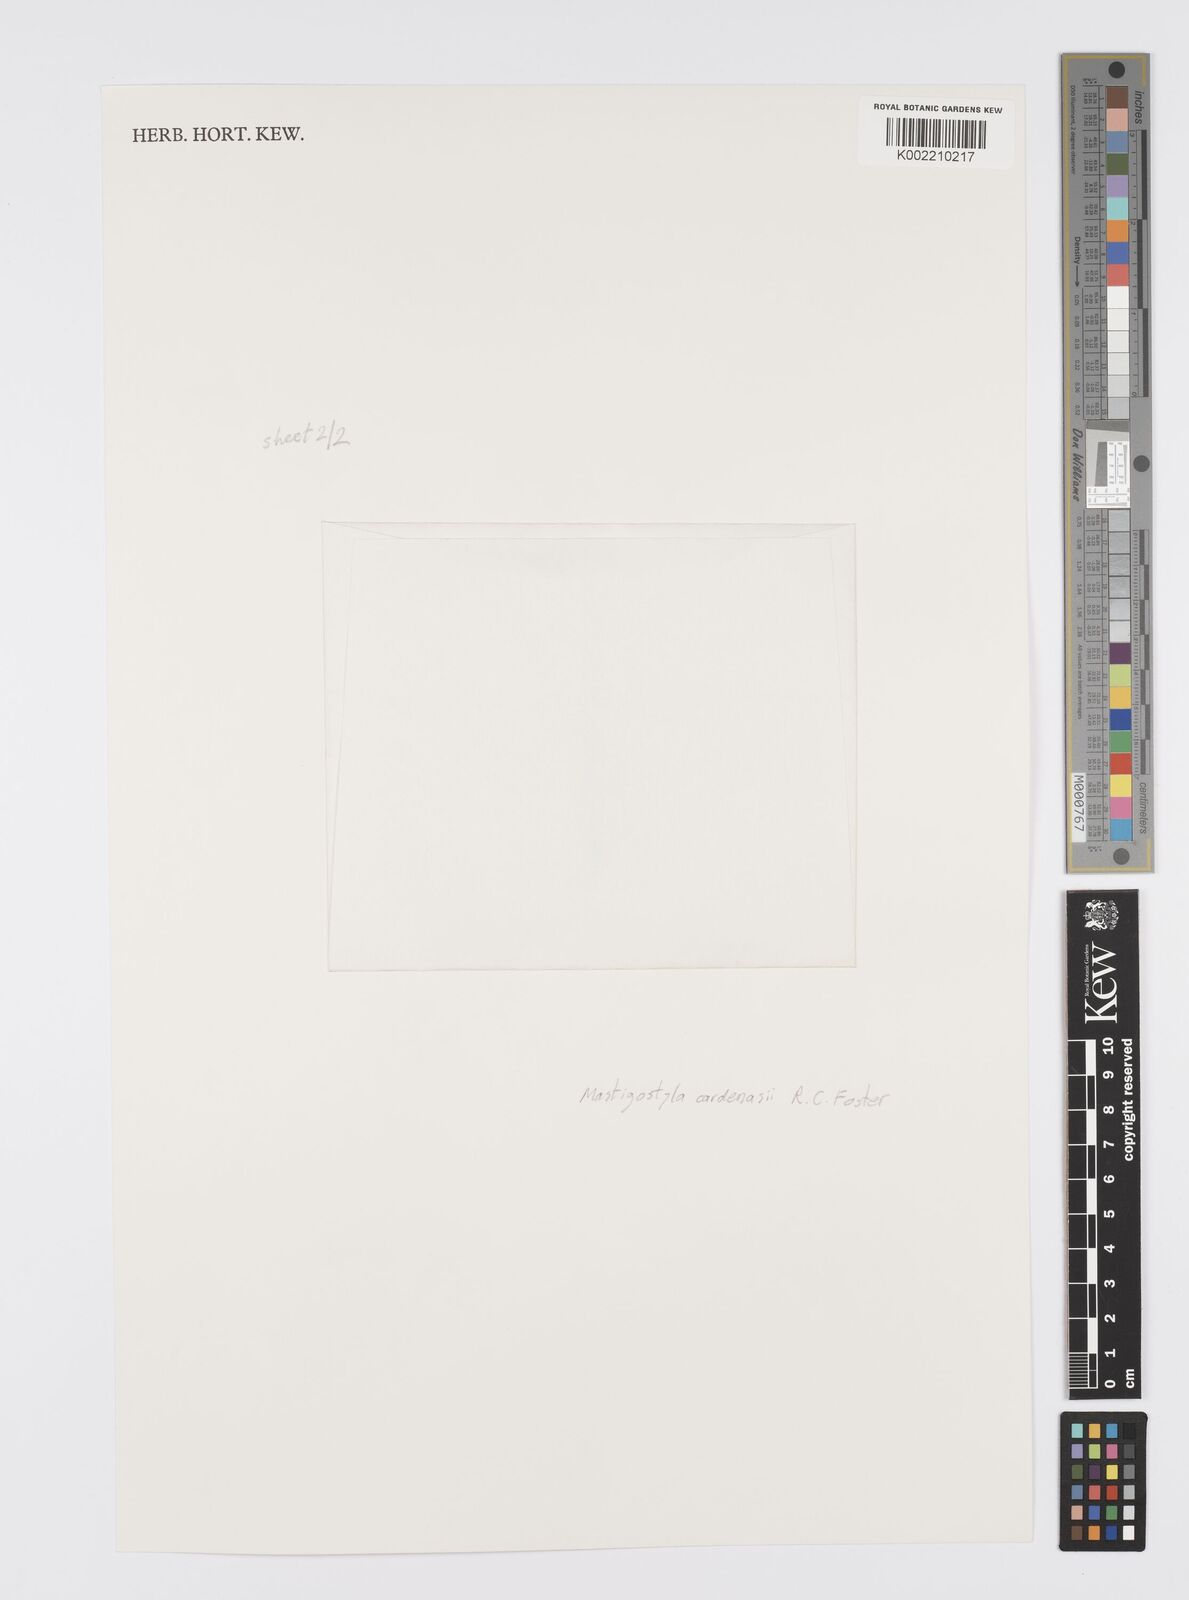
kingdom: Plantae
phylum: Tracheophyta
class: Liliopsida
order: Asparagales
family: Iridaceae
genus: Mastigostyla
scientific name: Mastigostyla cardenasii
